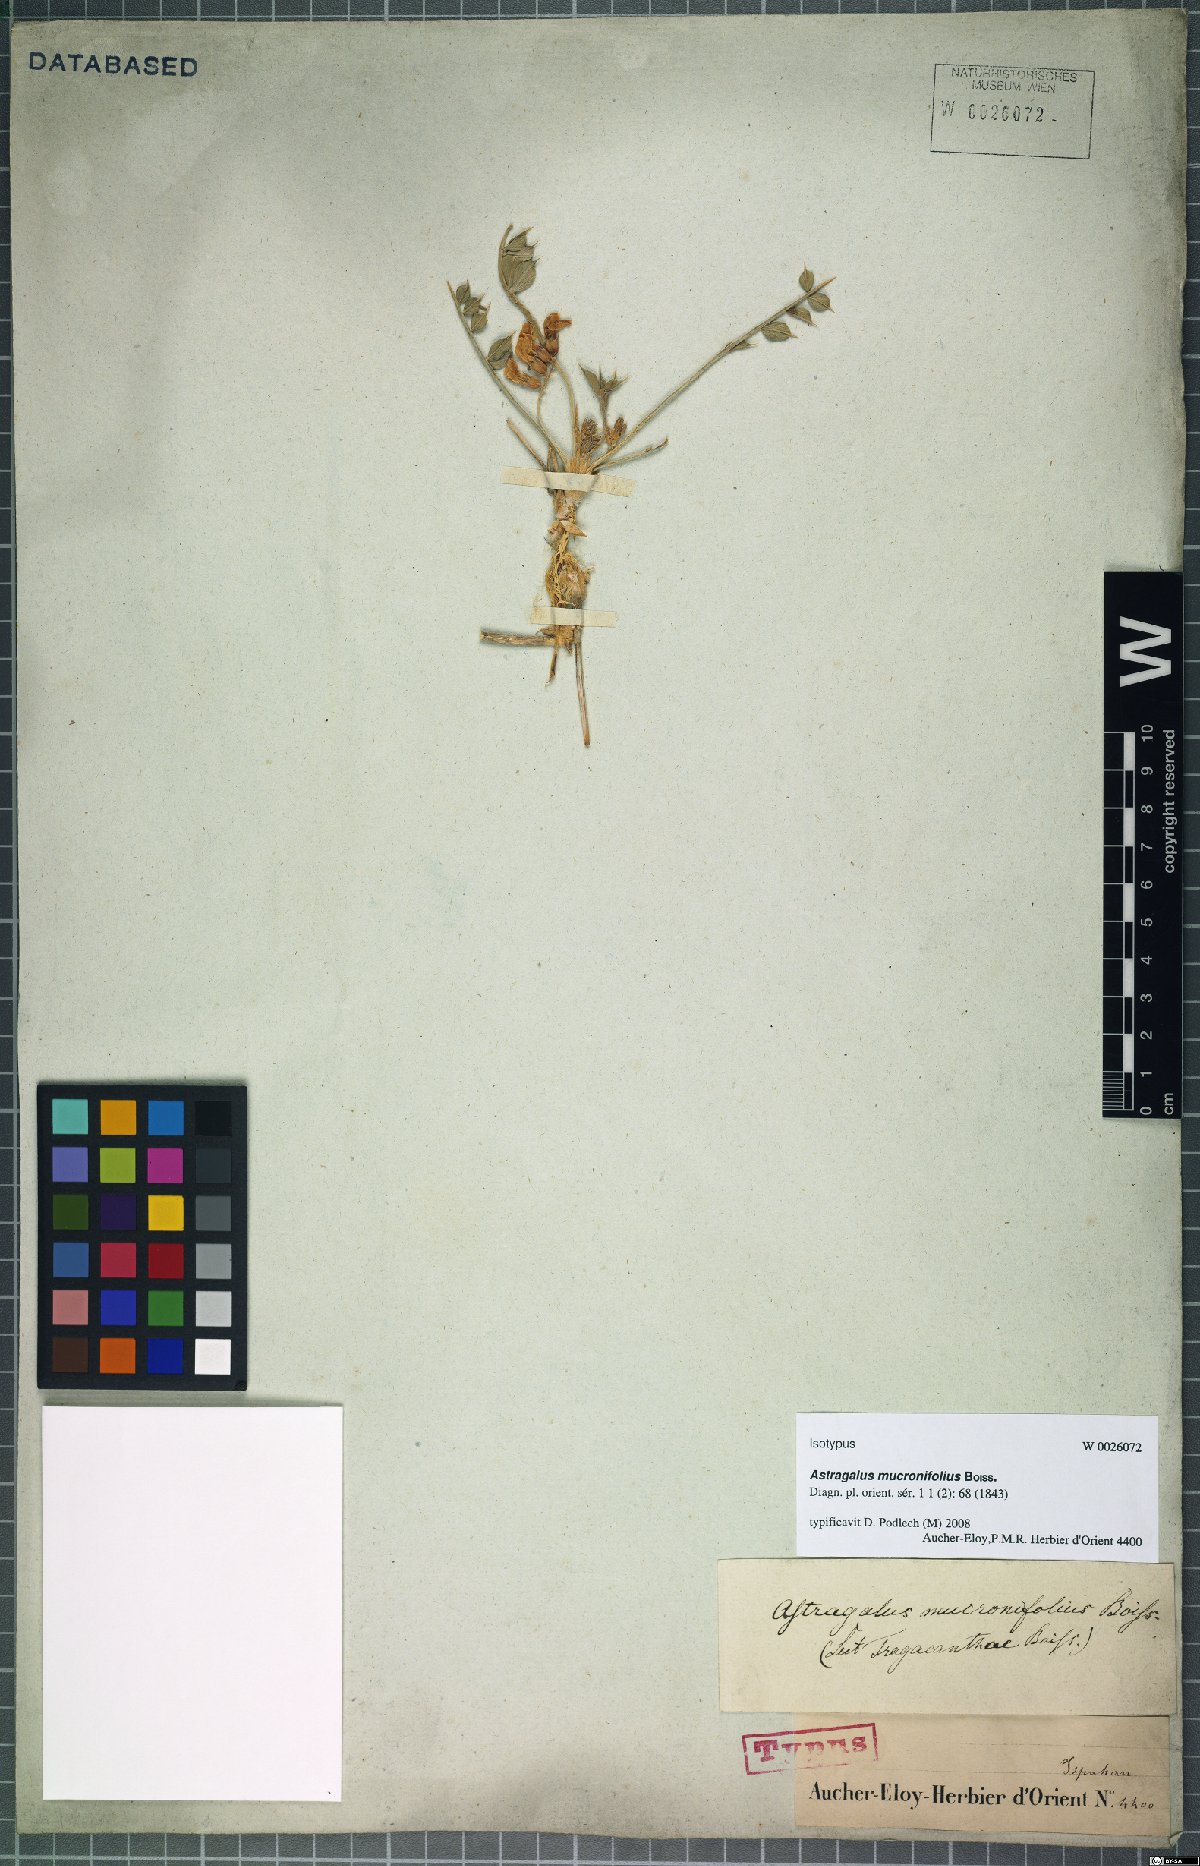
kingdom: Plantae
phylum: Tracheophyta
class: Magnoliopsida
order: Fabales
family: Fabaceae
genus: Astragalus
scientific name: Astragalus mucronifolius
